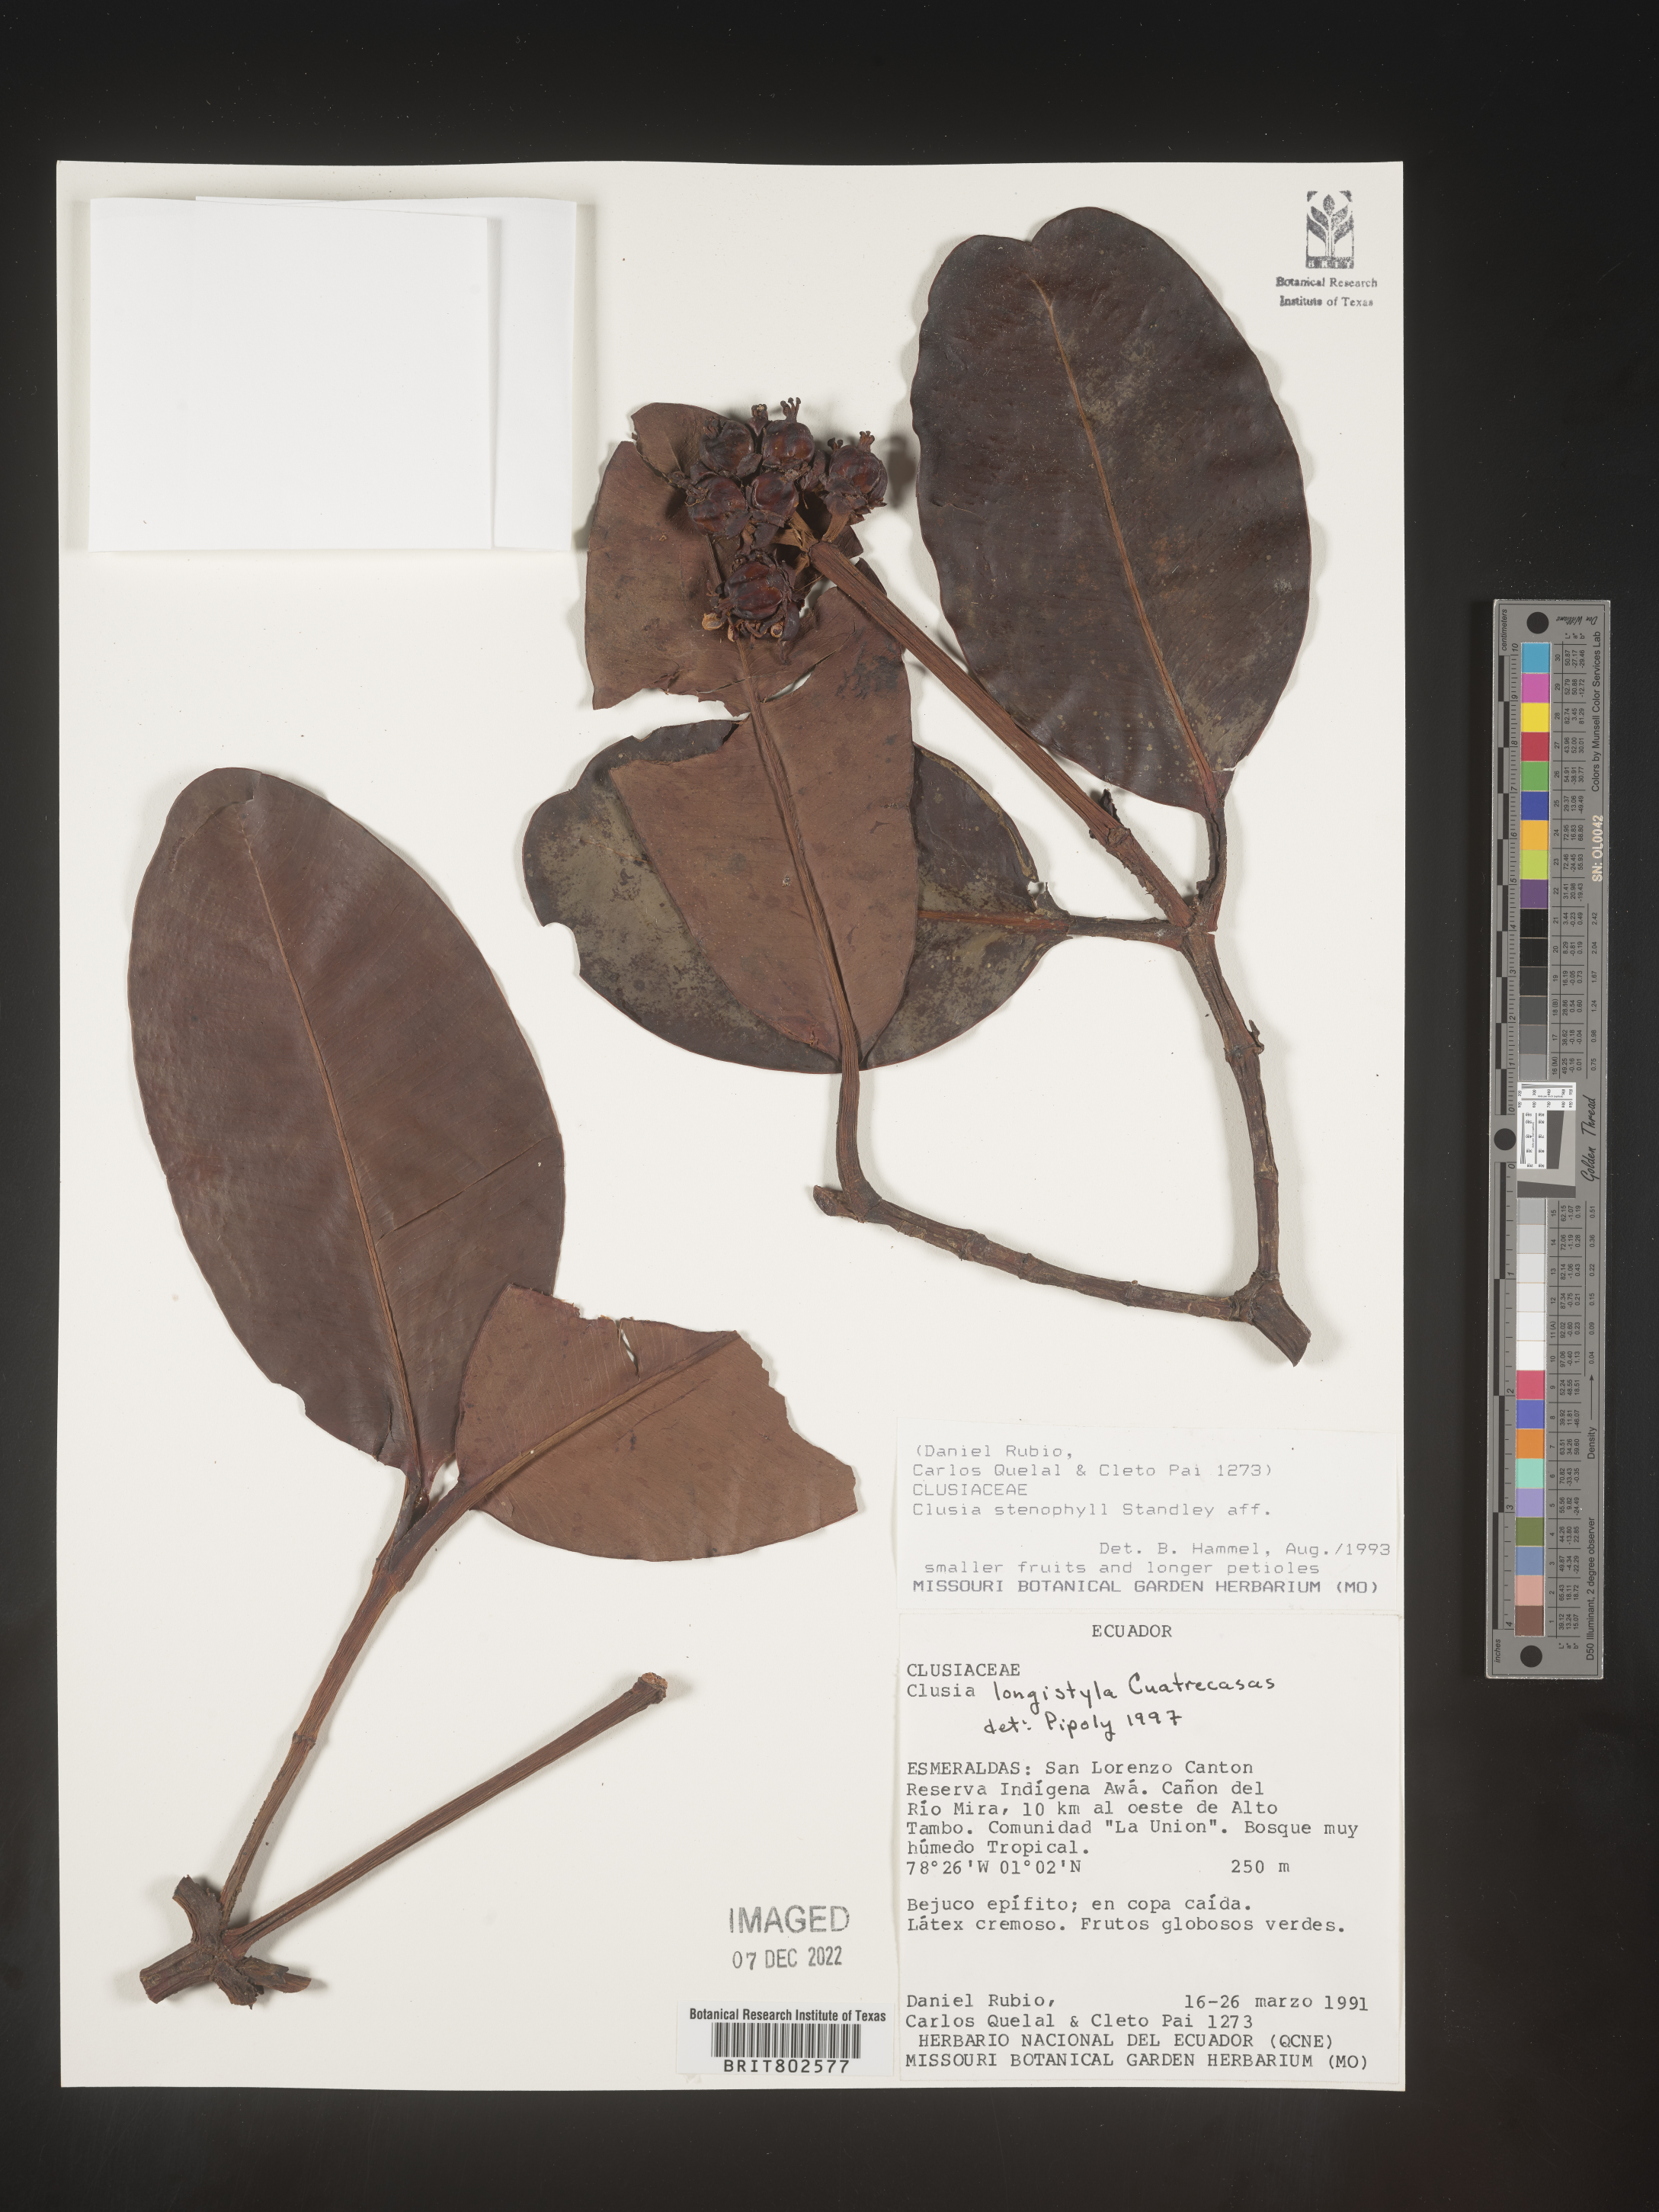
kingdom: Plantae
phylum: Tracheophyta
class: Magnoliopsida
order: Malpighiales
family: Clusiaceae
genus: Clusia
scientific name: Clusia rotundata
